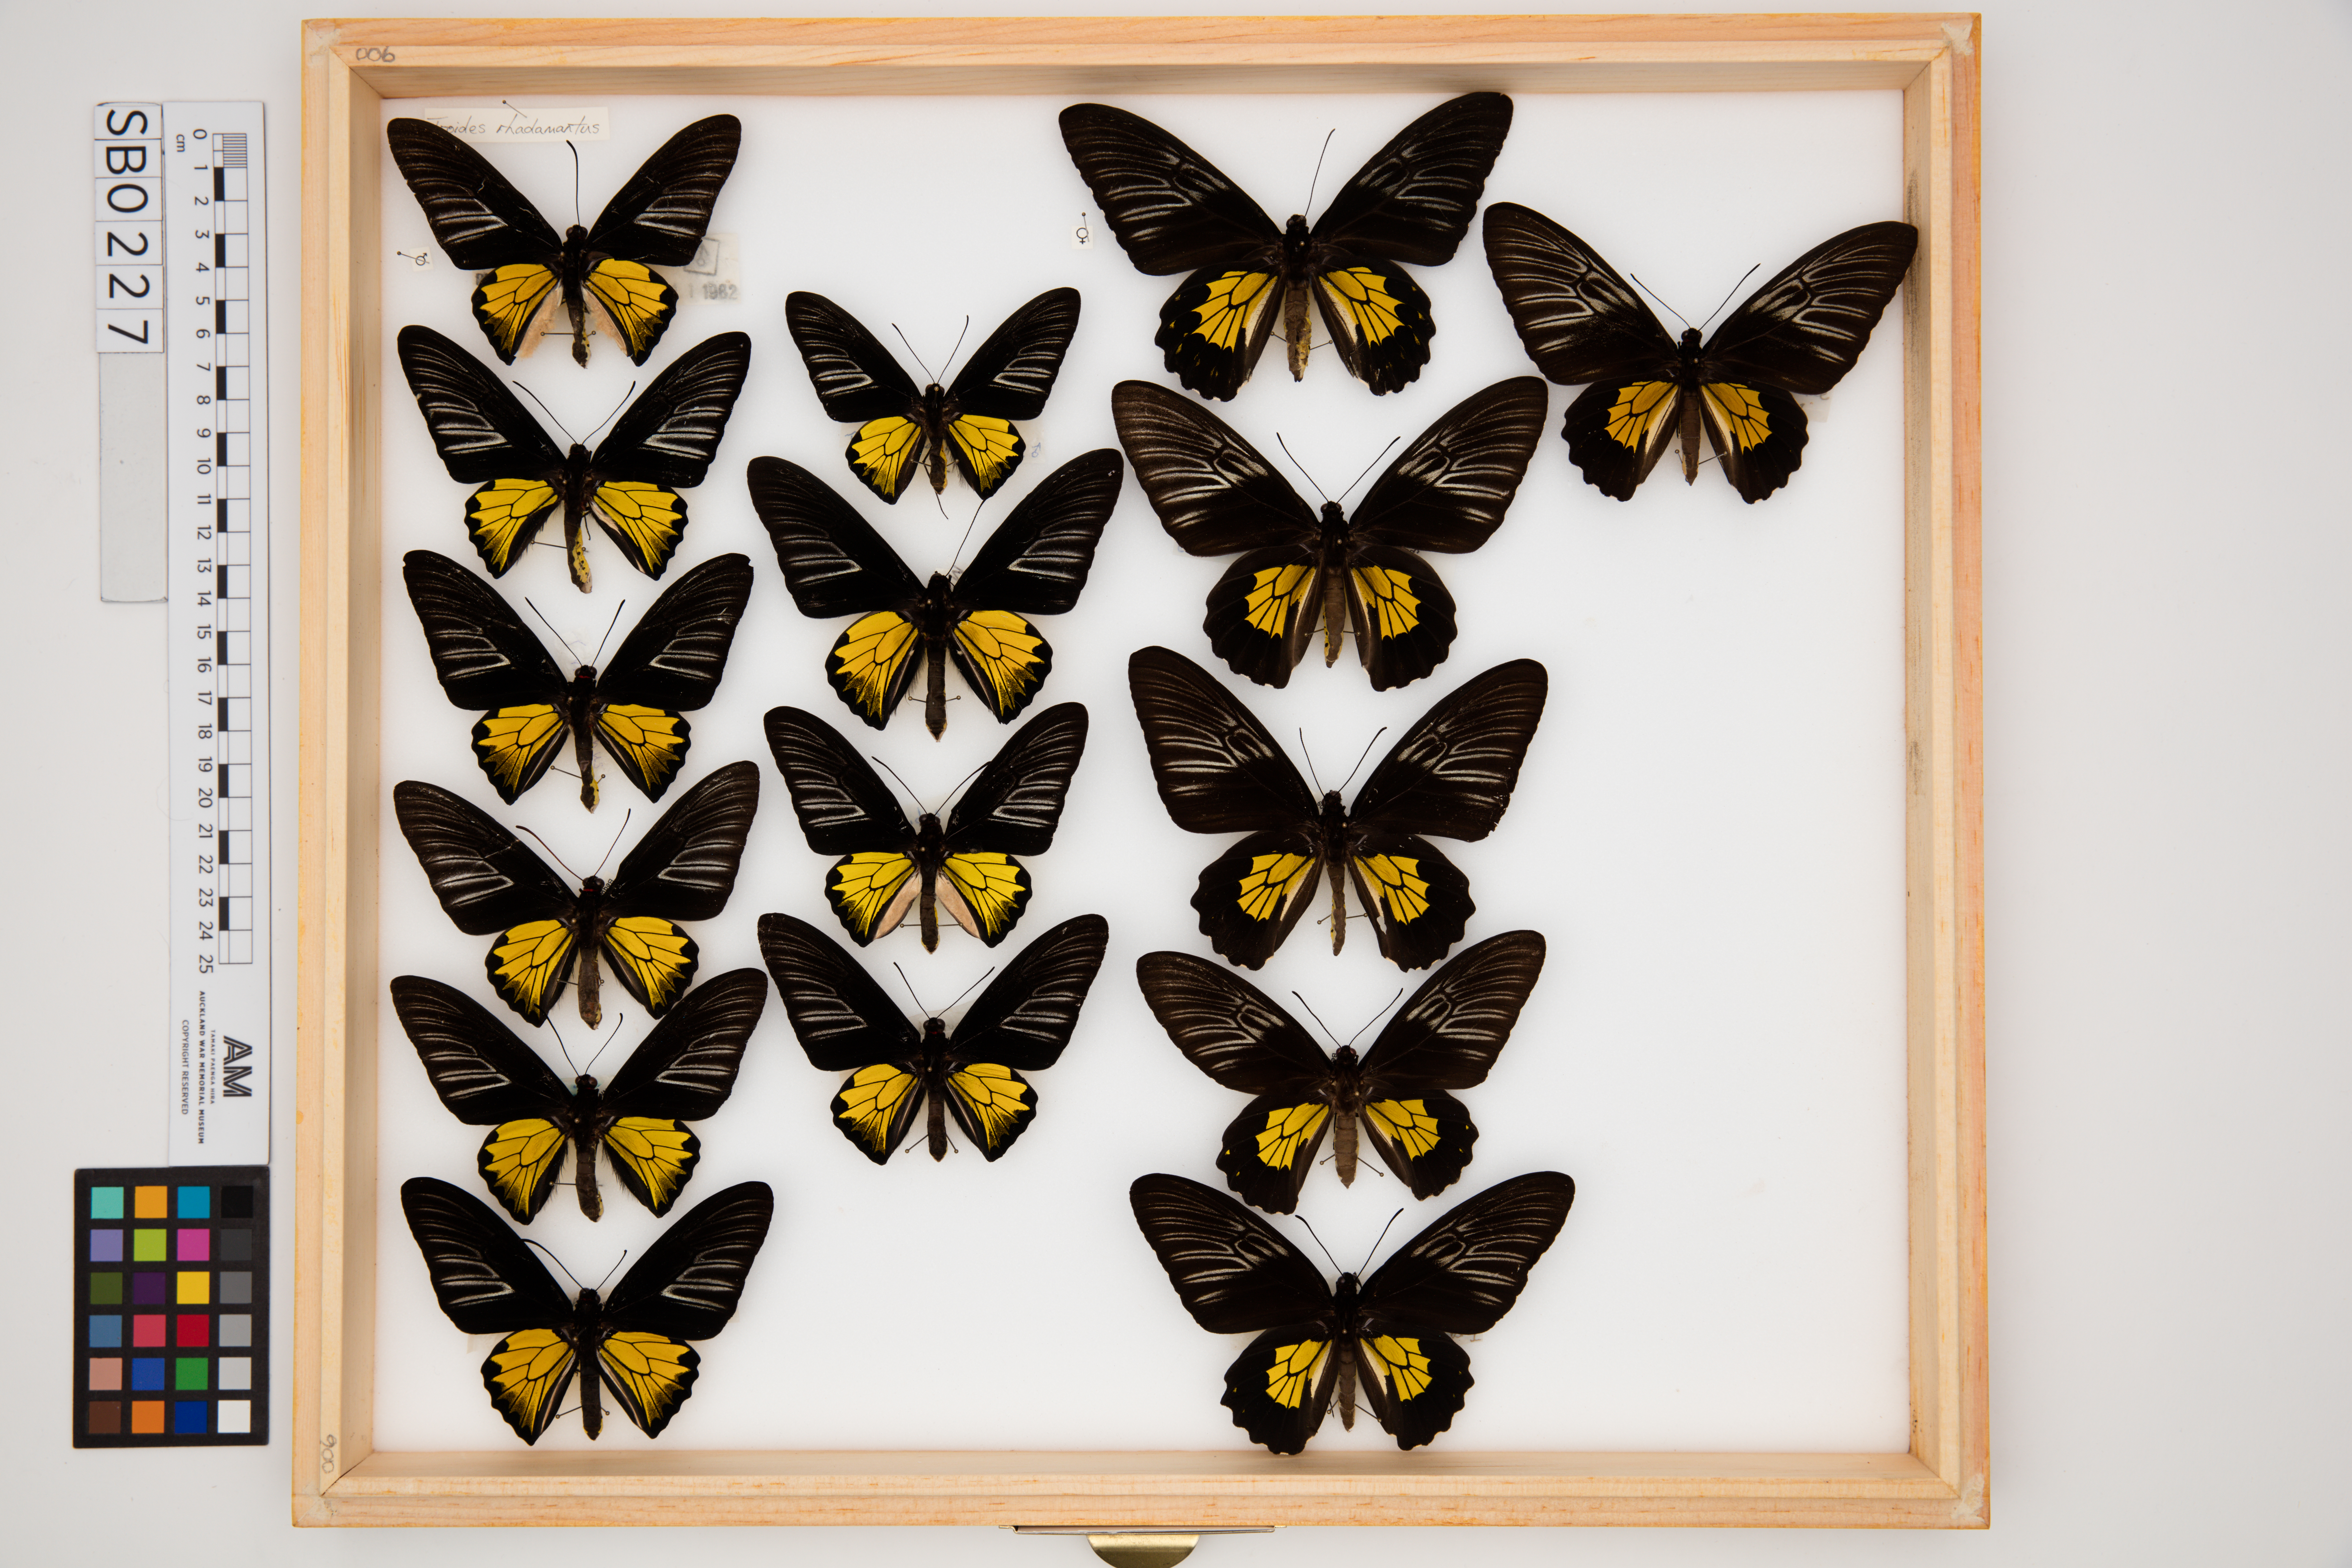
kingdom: Animalia
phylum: Arthropoda
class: Insecta
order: Lepidoptera
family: Papilionidae
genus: Troides
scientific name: Troides rhadamantus
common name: Golden birdwing
